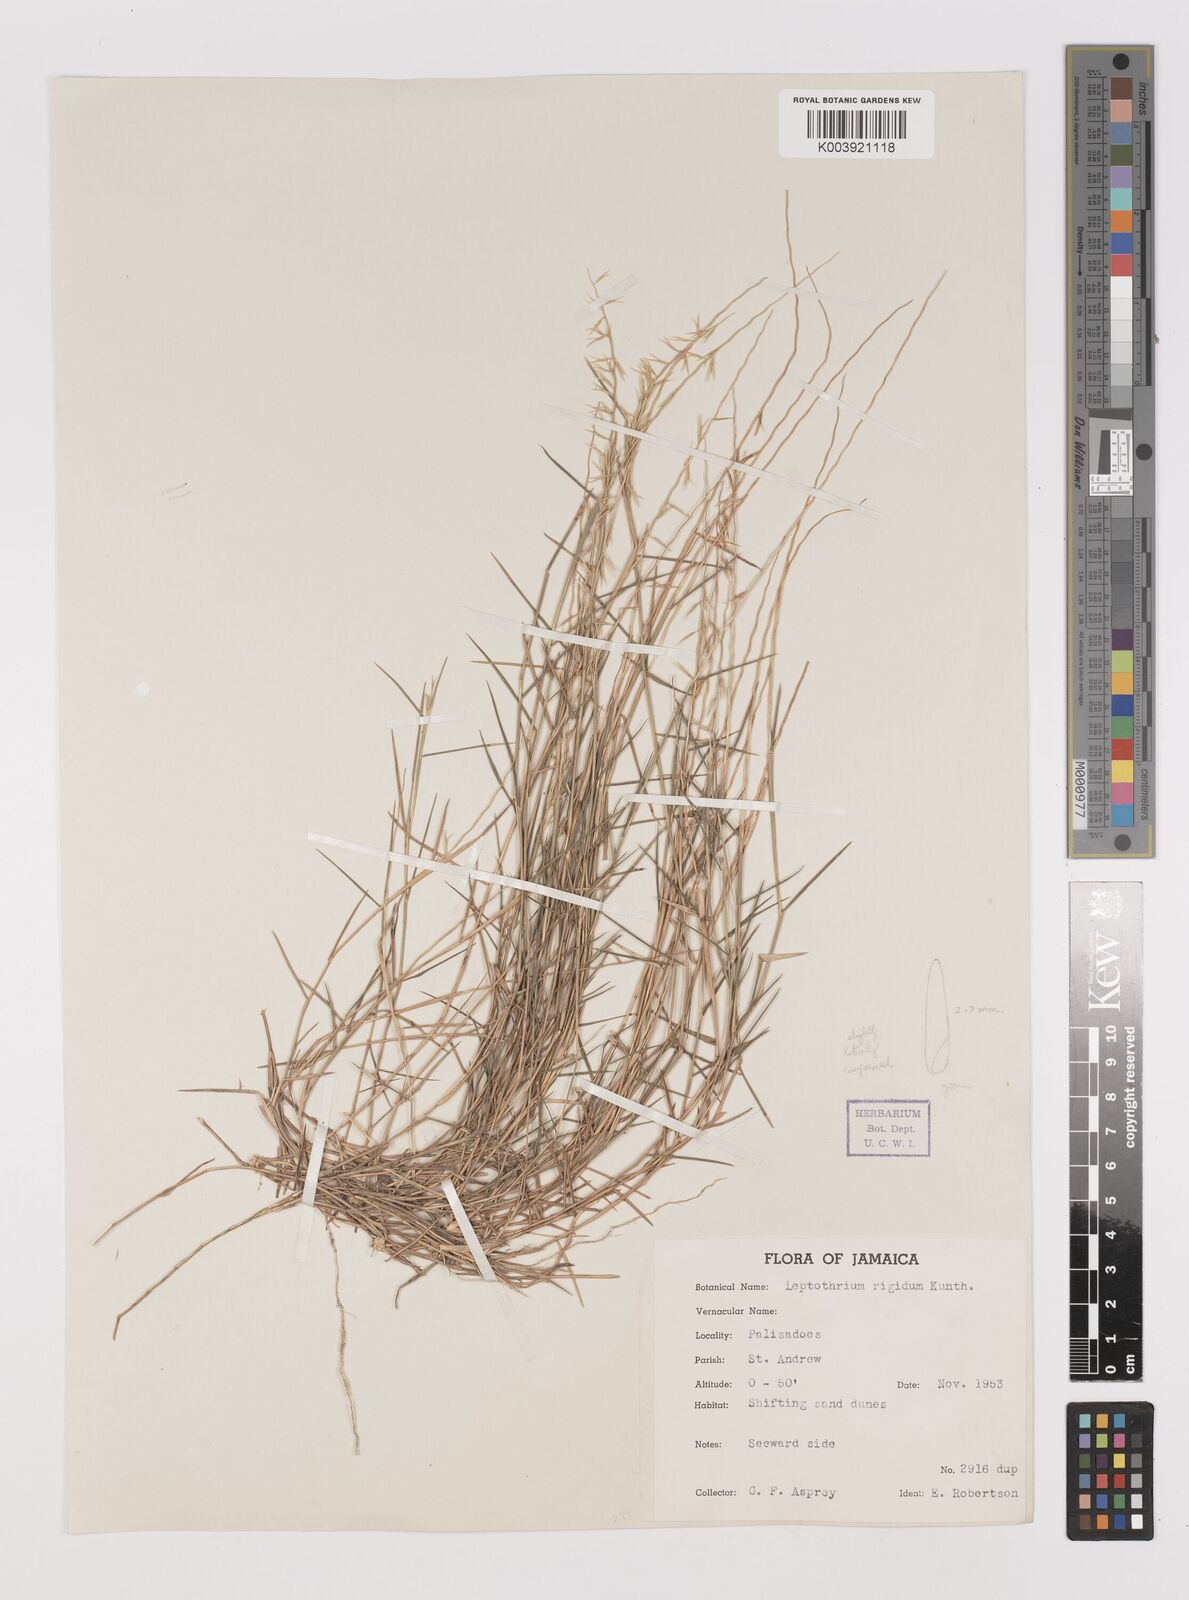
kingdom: Plantae
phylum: Tracheophyta
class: Liliopsida
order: Poales
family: Poaceae
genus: Leptothrium
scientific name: Leptothrium rigidum
